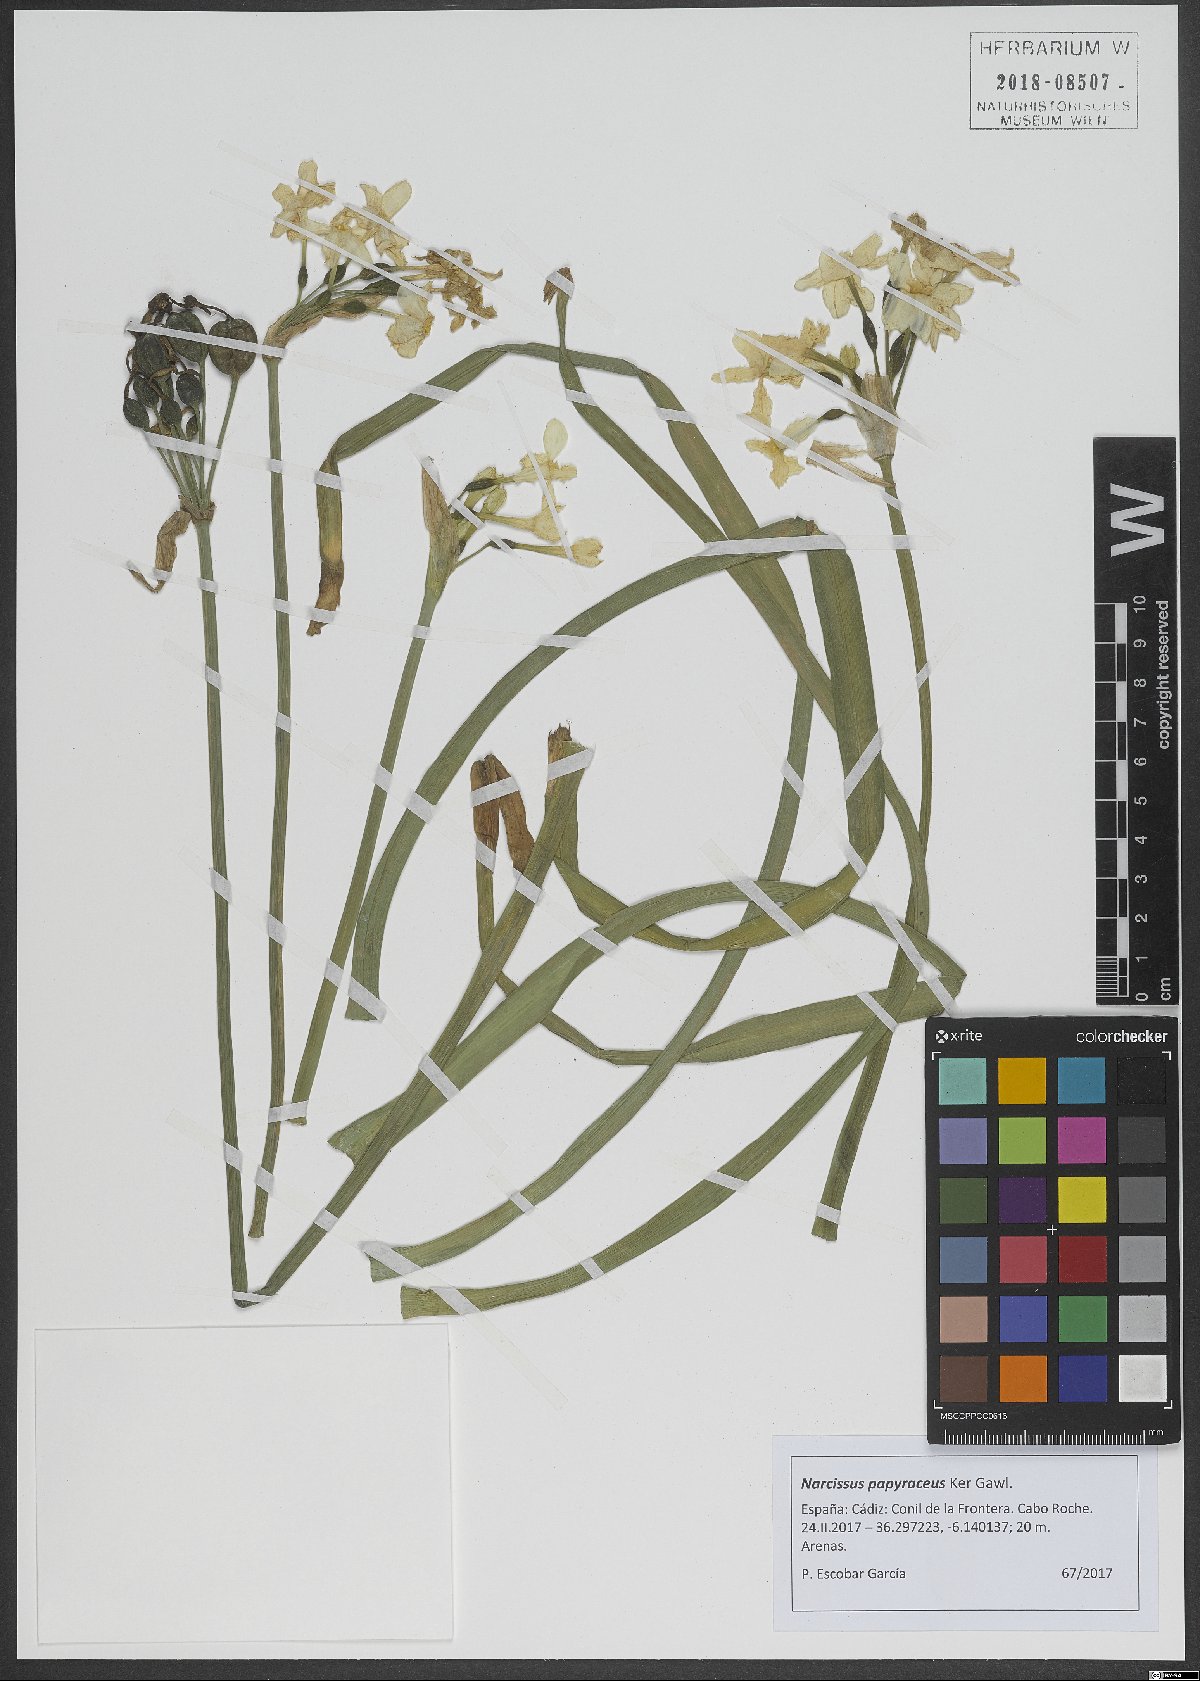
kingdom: Plantae
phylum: Tracheophyta
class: Liliopsida
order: Asparagales
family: Amaryllidaceae
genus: Narcissus
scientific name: Narcissus papyraceus
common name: Paper-white daffodil
